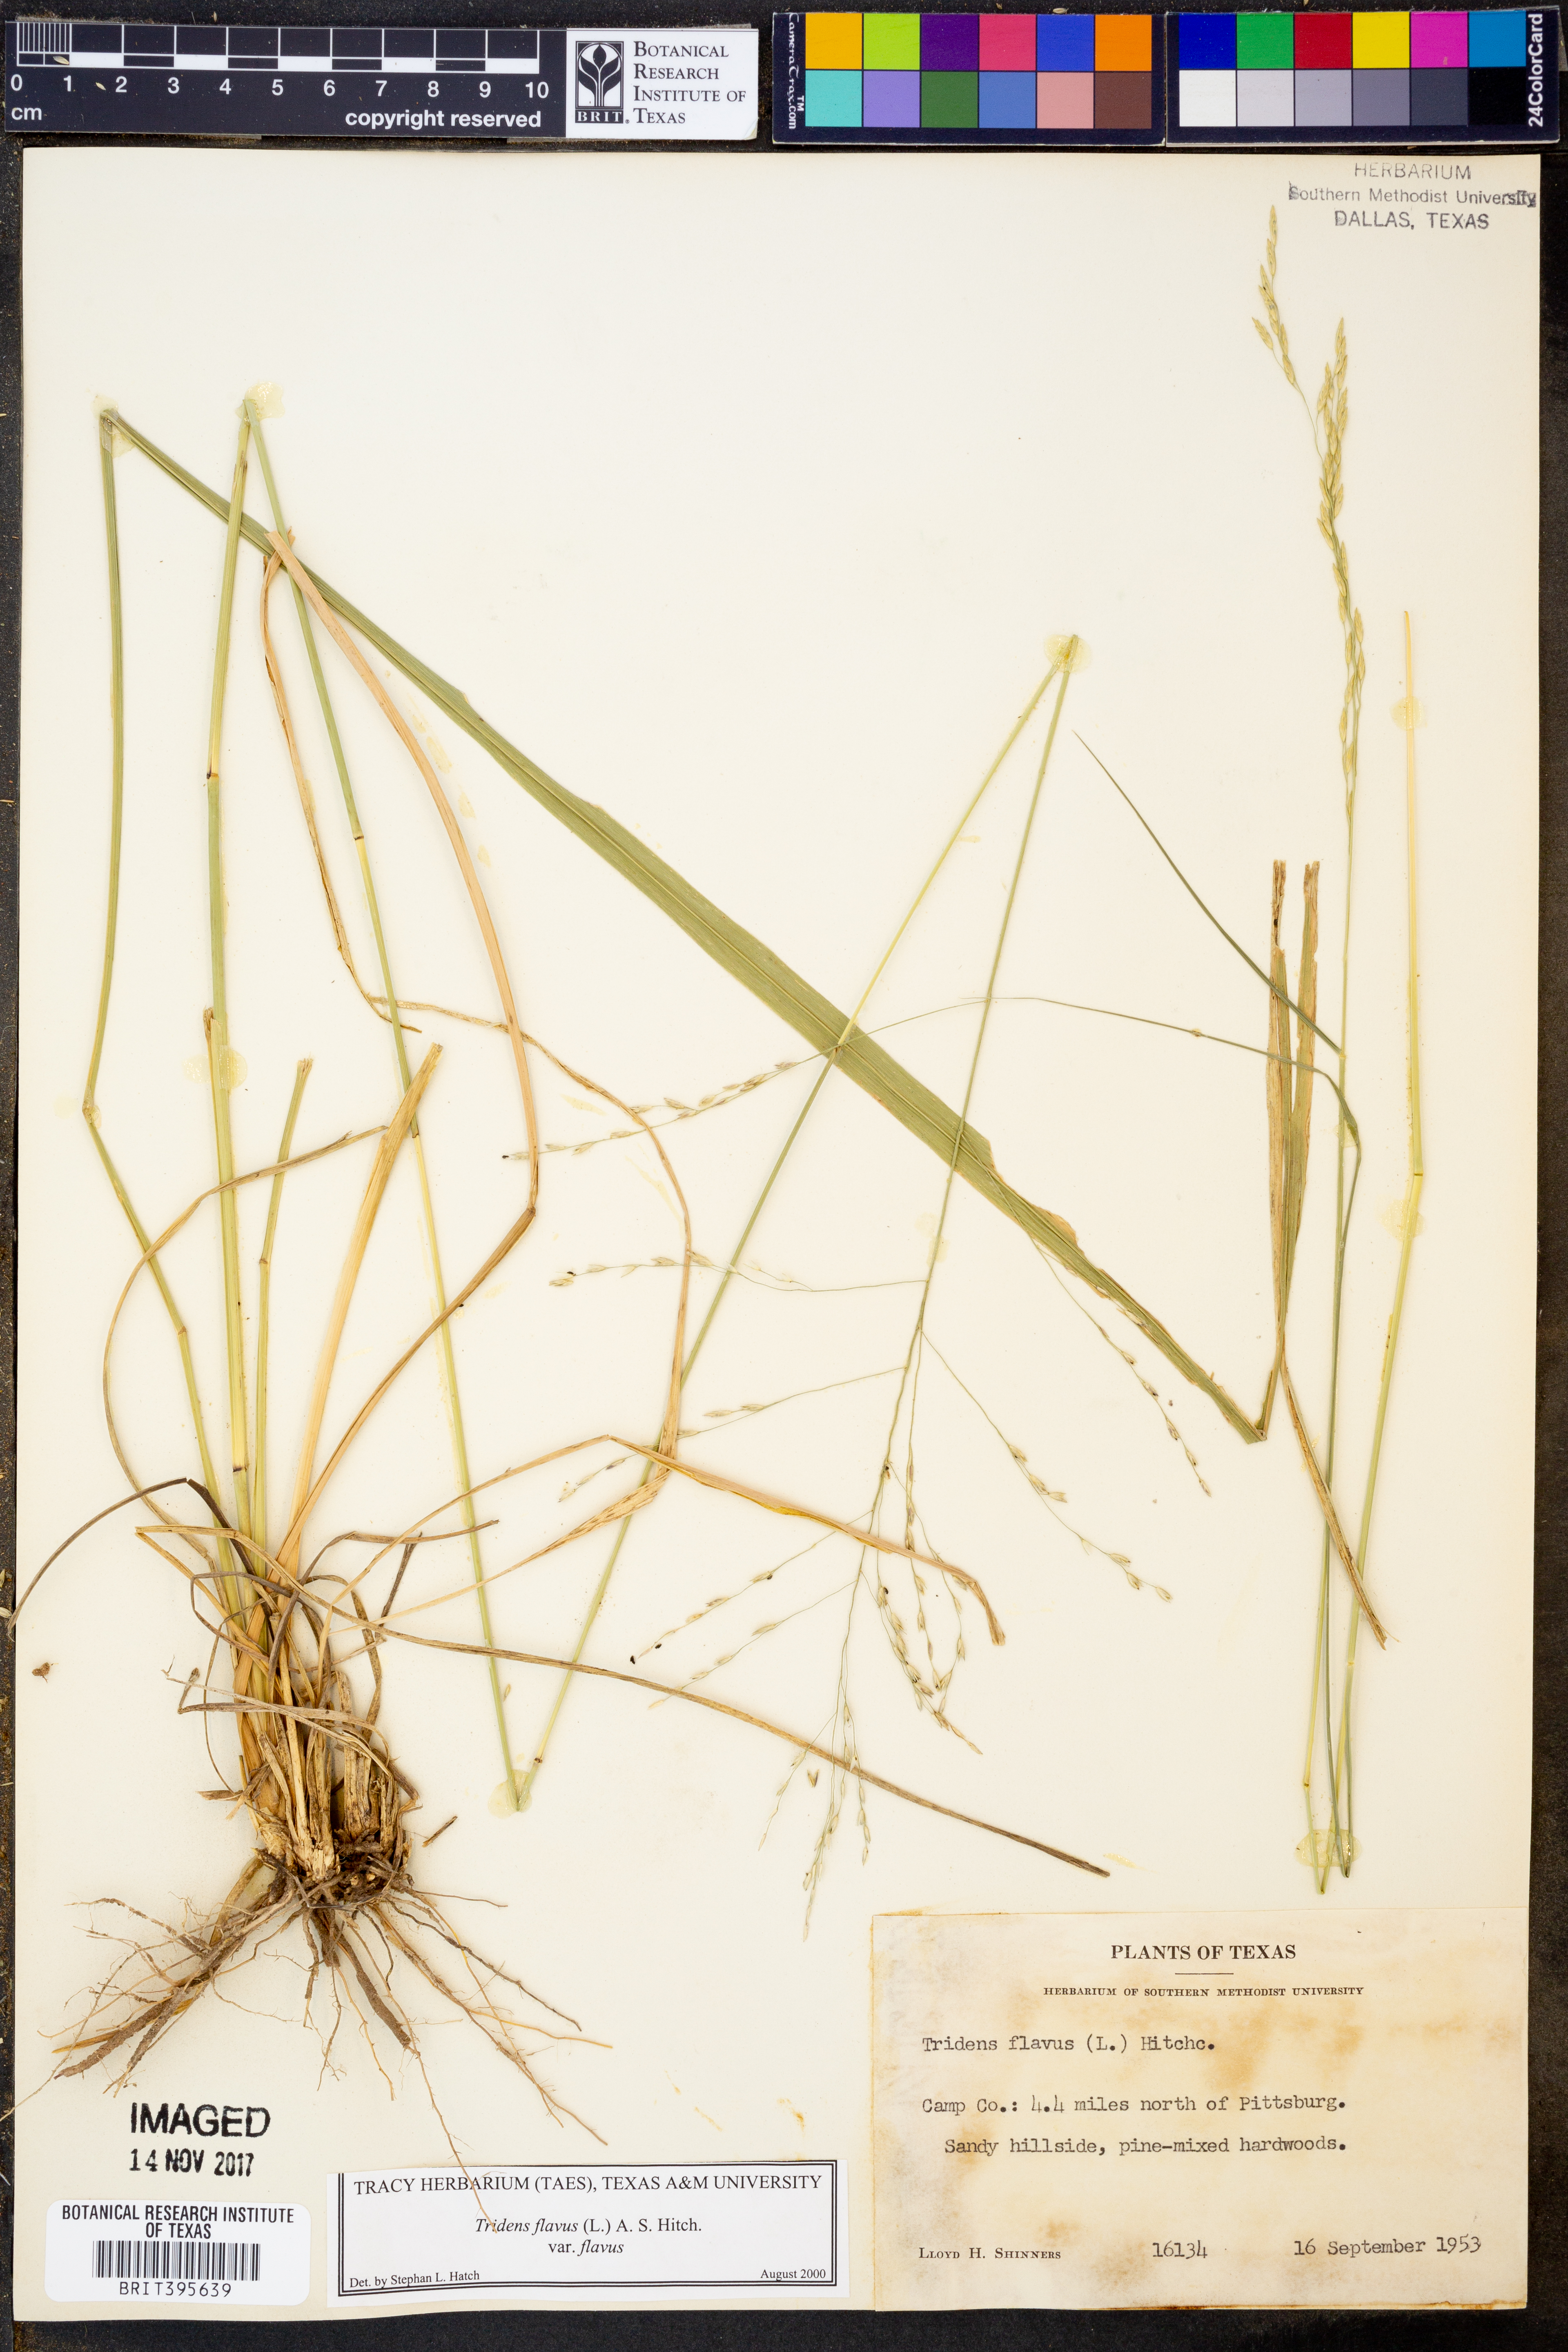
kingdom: Plantae
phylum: Tracheophyta
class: Liliopsida
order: Poales
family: Poaceae
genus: Tridens
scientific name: Tridens flavus
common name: Purpletop
